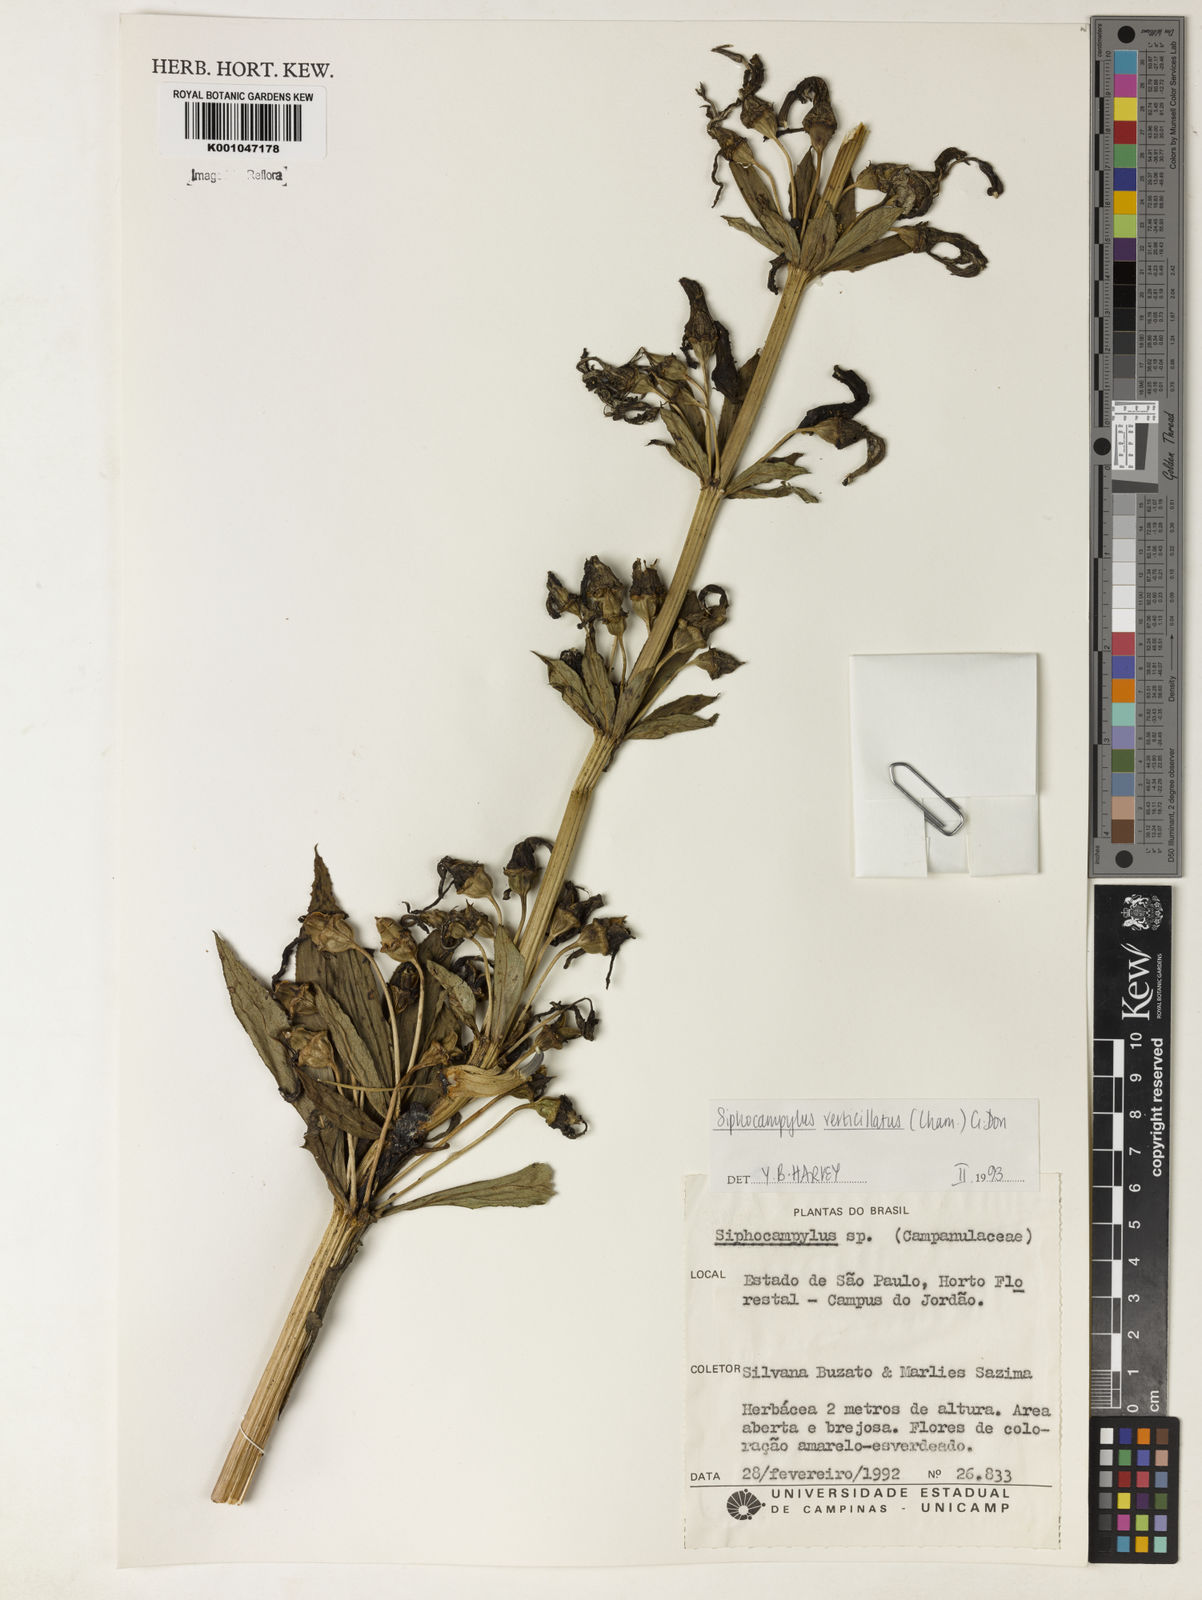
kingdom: Plantae
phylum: Tracheophyta
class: Magnoliopsida
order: Asterales
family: Campanulaceae
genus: Siphocampylus
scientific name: Siphocampylus verticillatus
